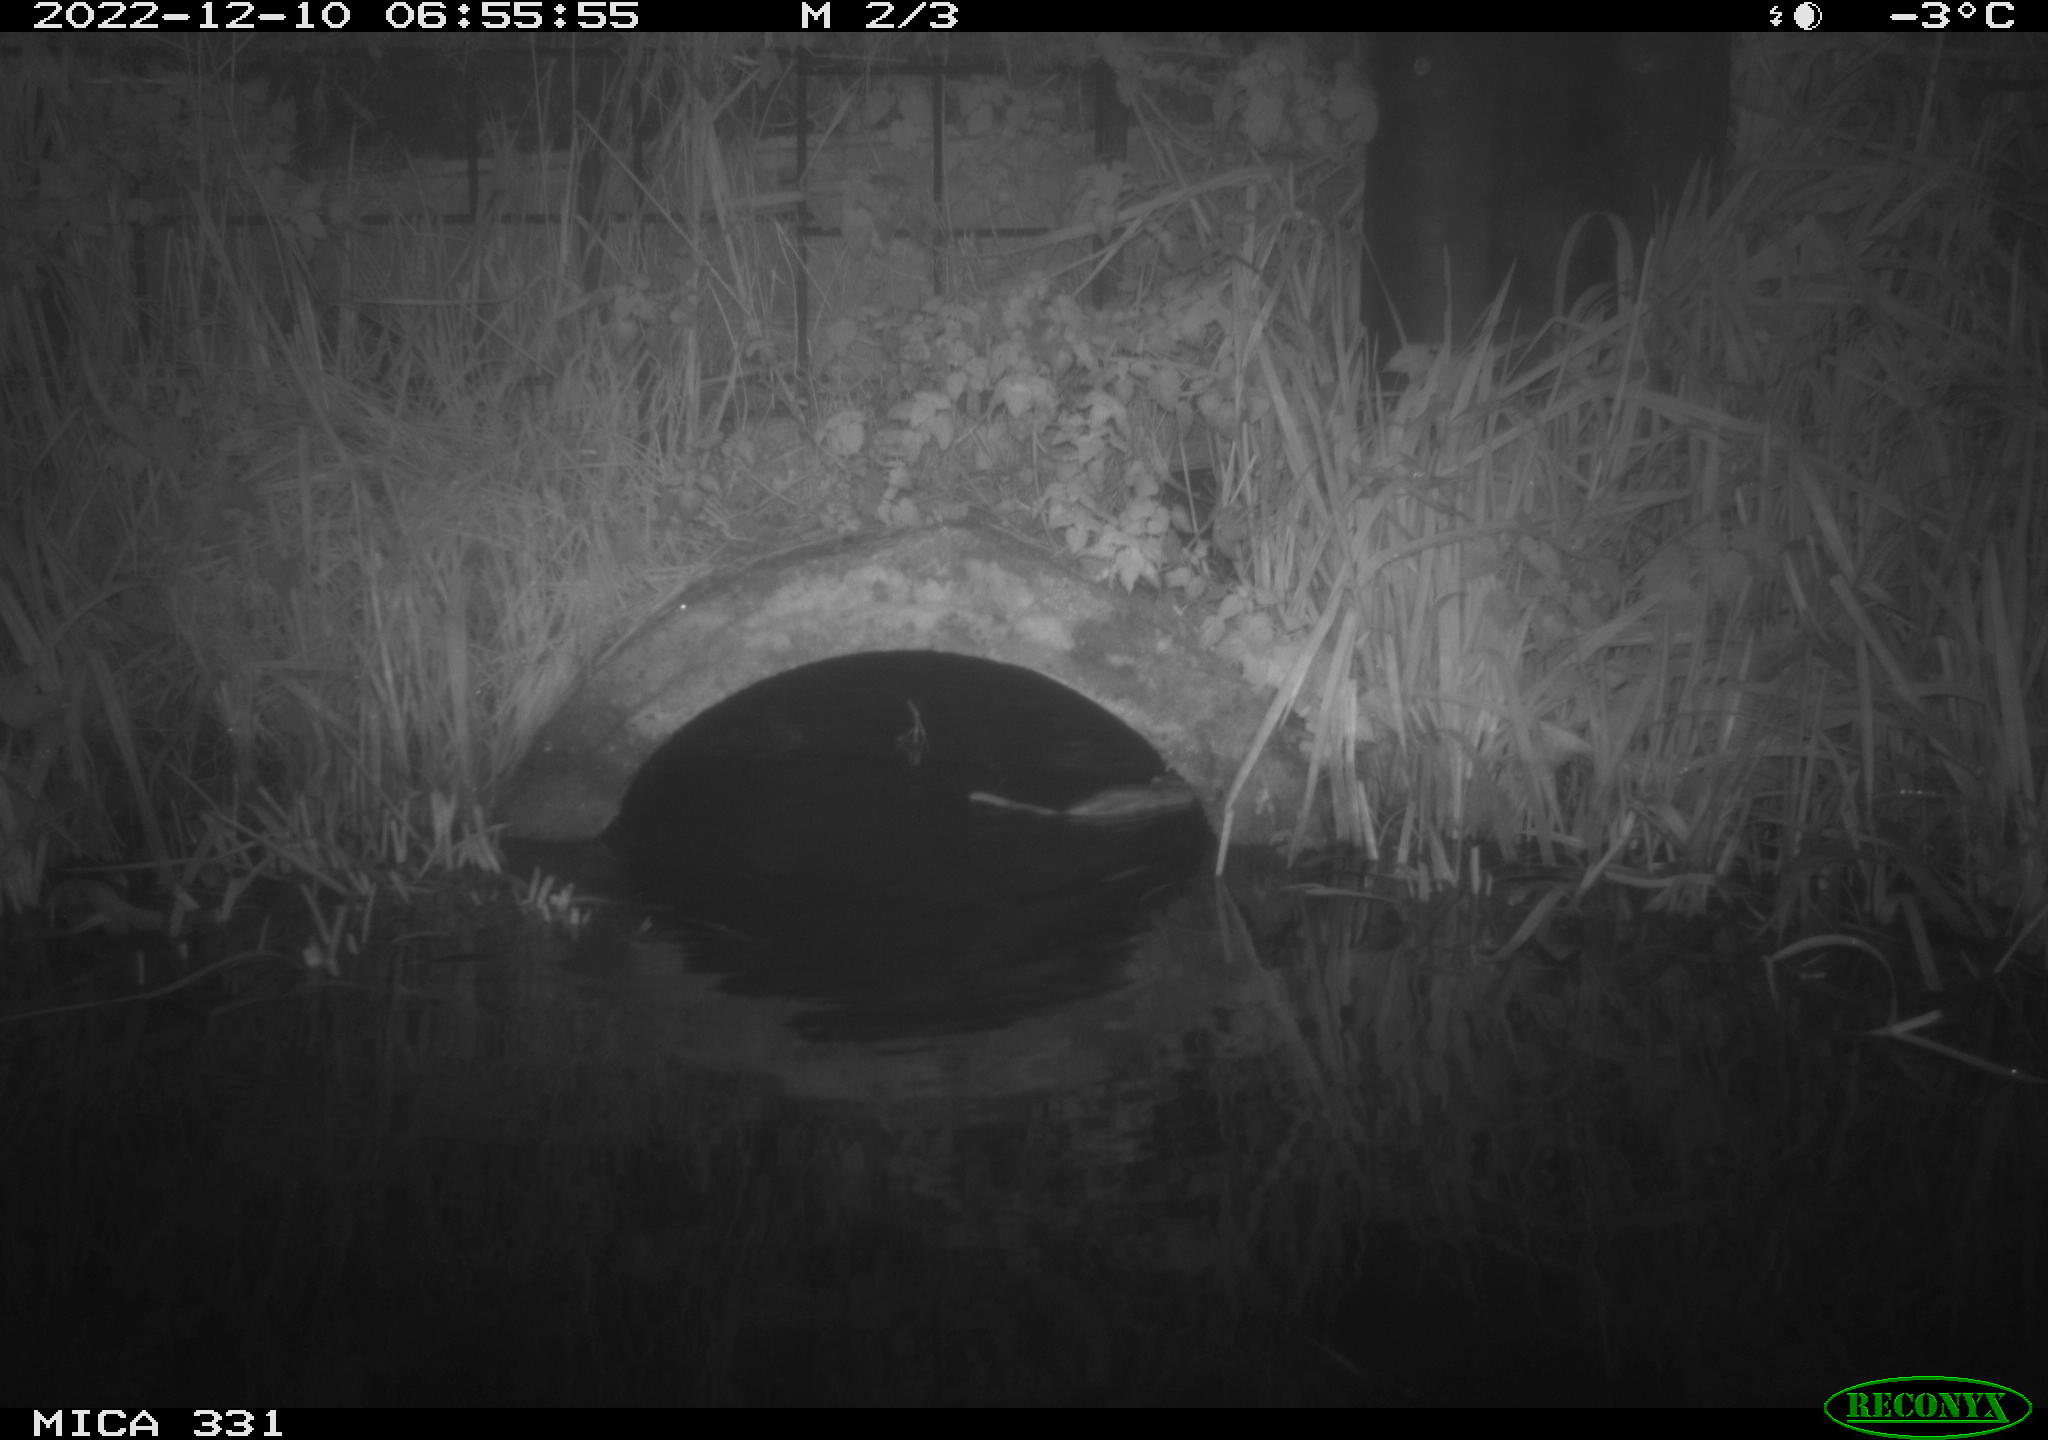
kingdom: Animalia
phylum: Chordata
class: Mammalia
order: Rodentia
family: Muridae
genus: Rattus
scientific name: Rattus norvegicus
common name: Brown rat
